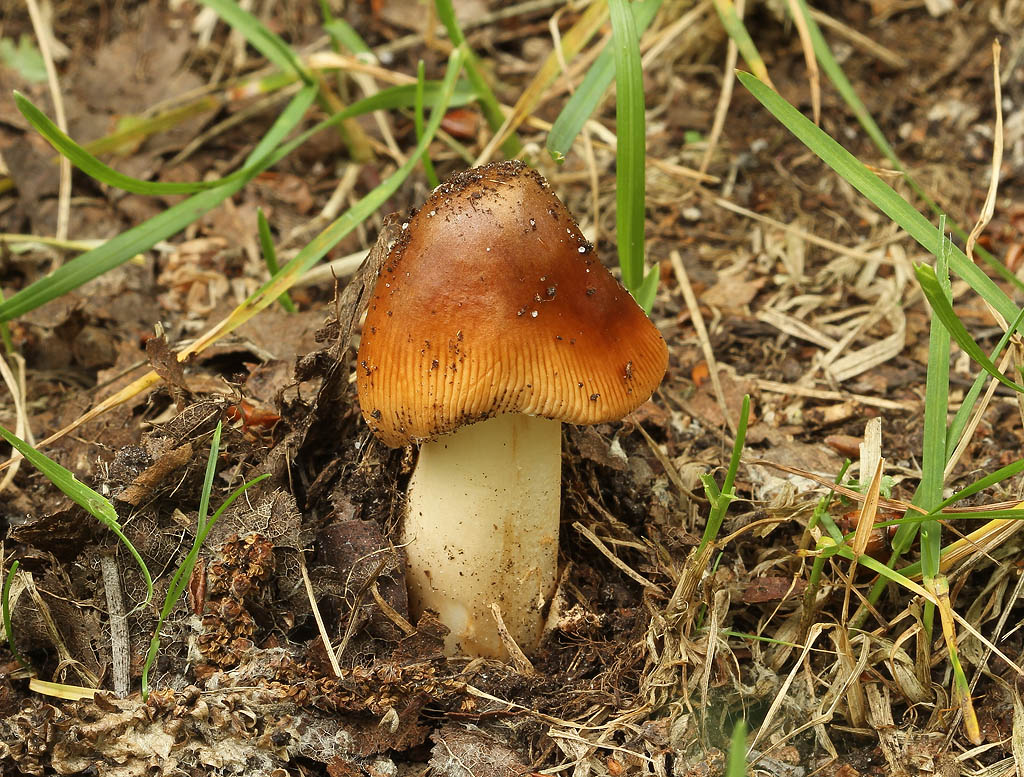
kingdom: Fungi
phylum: Basidiomycota
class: Agaricomycetes
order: Agaricales
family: Amanitaceae
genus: Amanita
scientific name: Amanita fulva
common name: brun kam-fluesvamp
